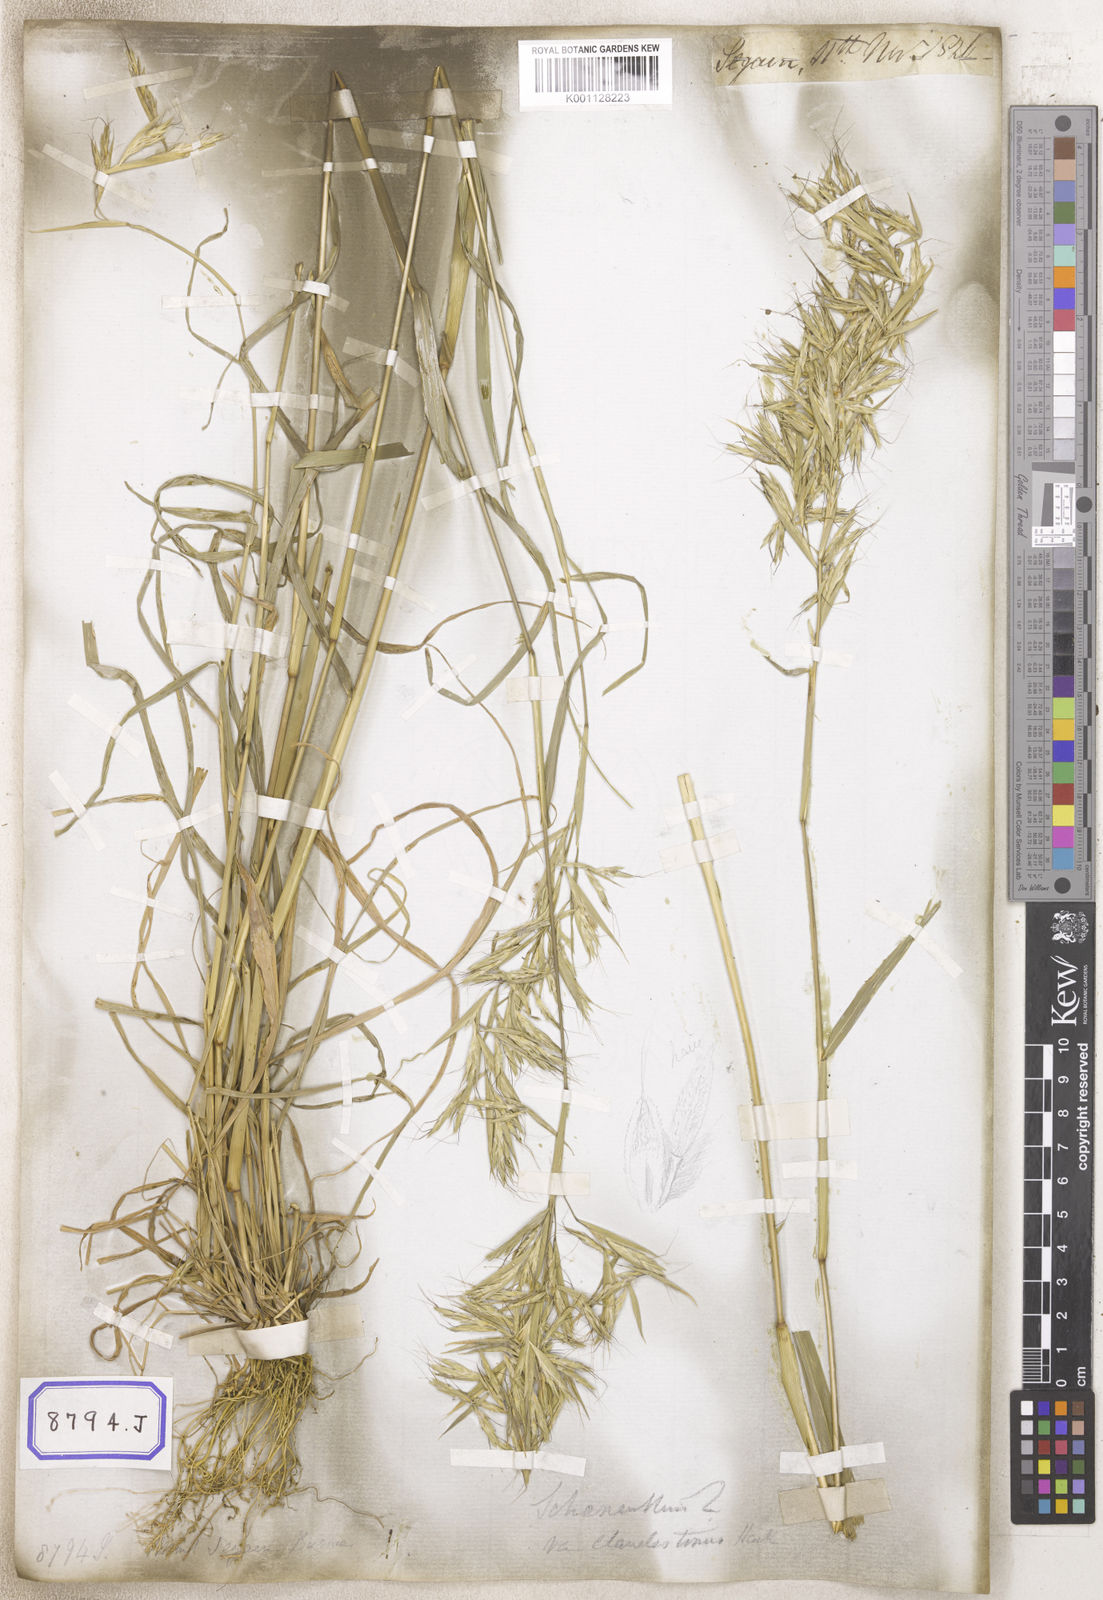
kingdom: Plantae
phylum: Tracheophyta
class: Liliopsida
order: Poales
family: Poaceae
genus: Cymbopogon
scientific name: Cymbopogon schoenanthus
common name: Geranium grass
